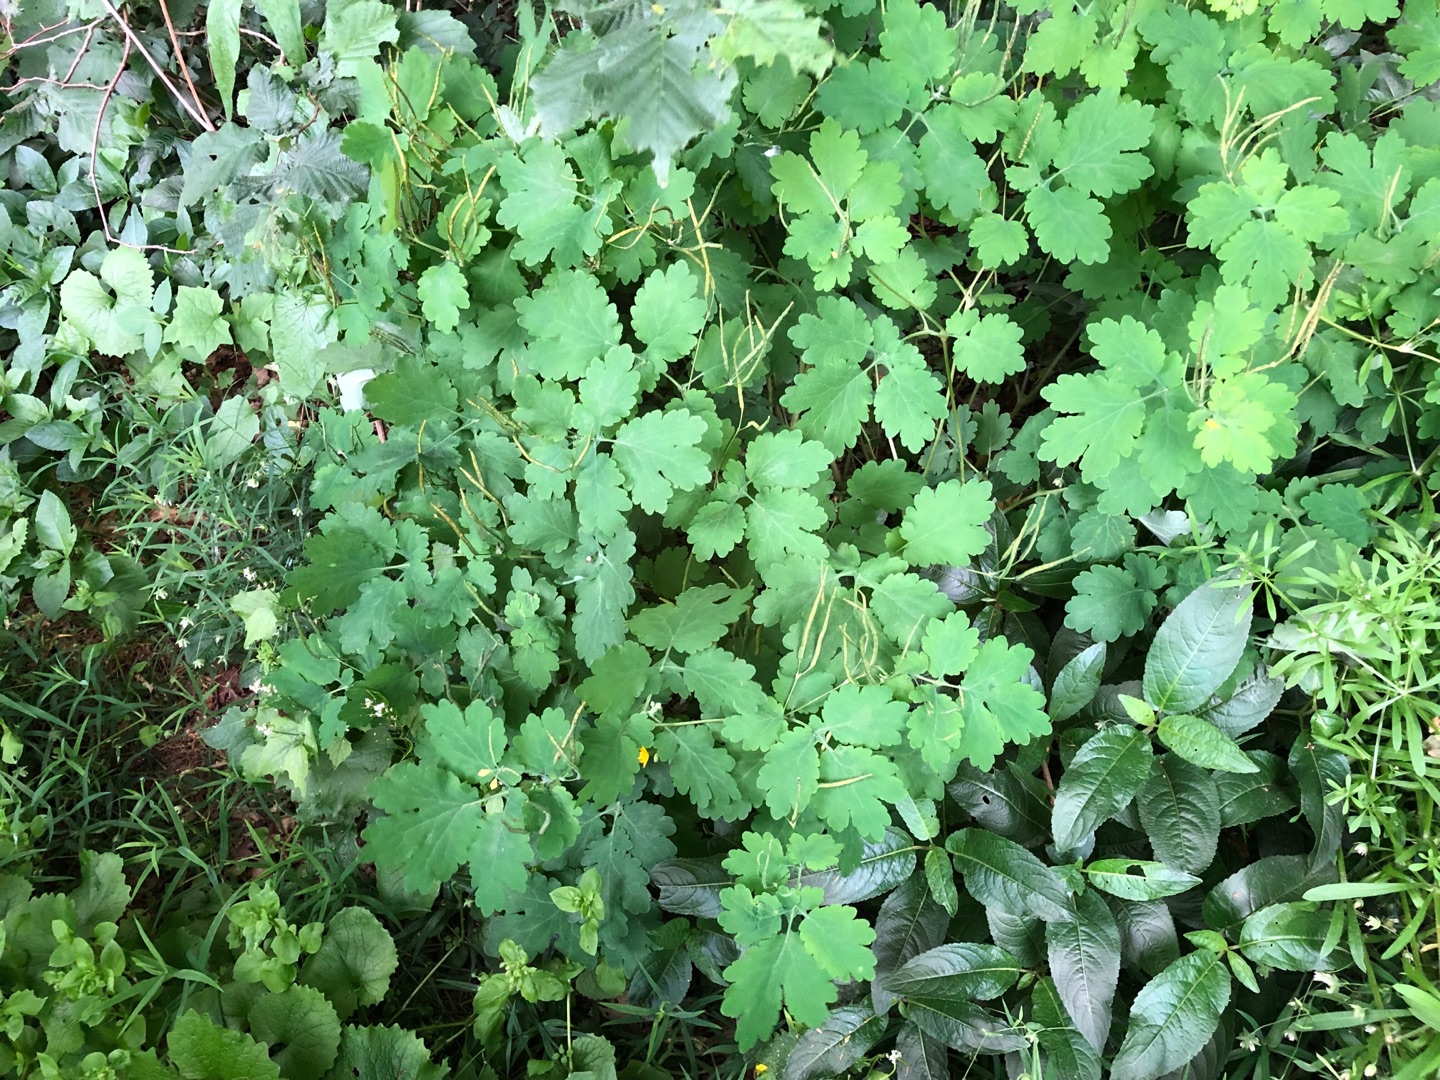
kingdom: Plantae
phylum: Tracheophyta
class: Magnoliopsida
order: Ranunculales
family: Papaveraceae
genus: Chelidonium
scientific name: Chelidonium majus
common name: Svaleurt
